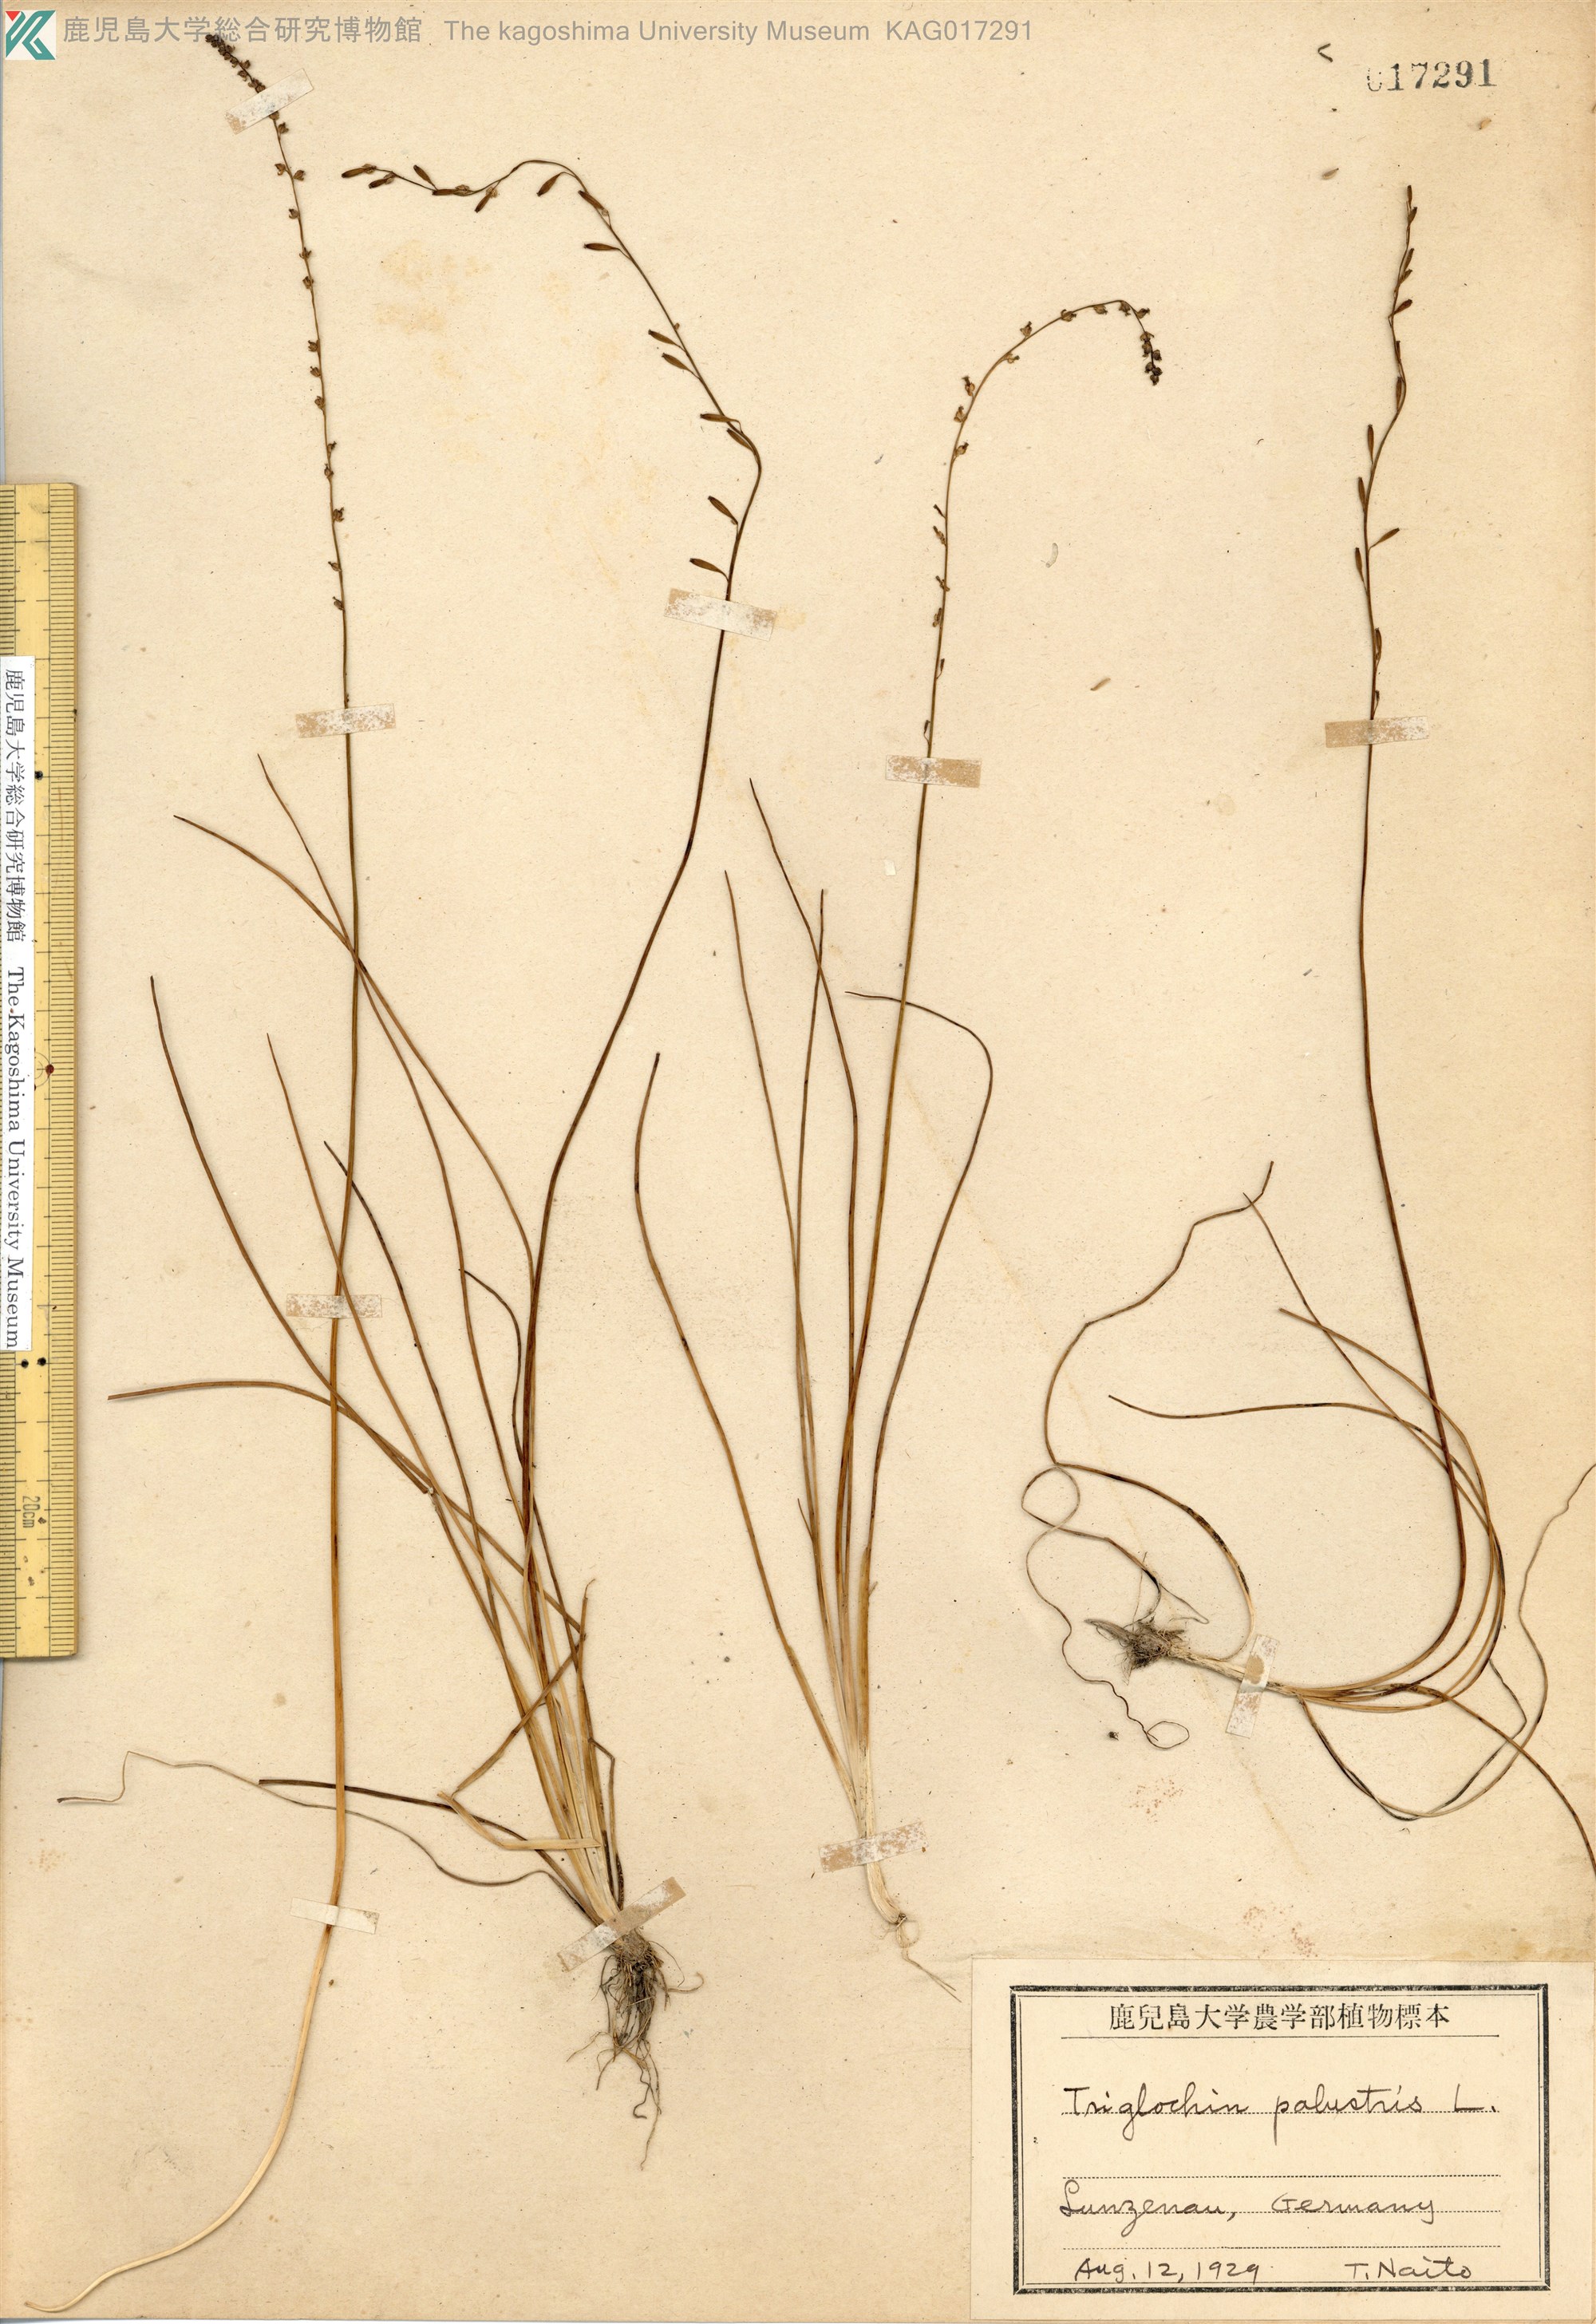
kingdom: Plantae
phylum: Tracheophyta
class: Liliopsida
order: Alismatales
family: Juncaginaceae
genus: Triglochin
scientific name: Triglochin palustris
